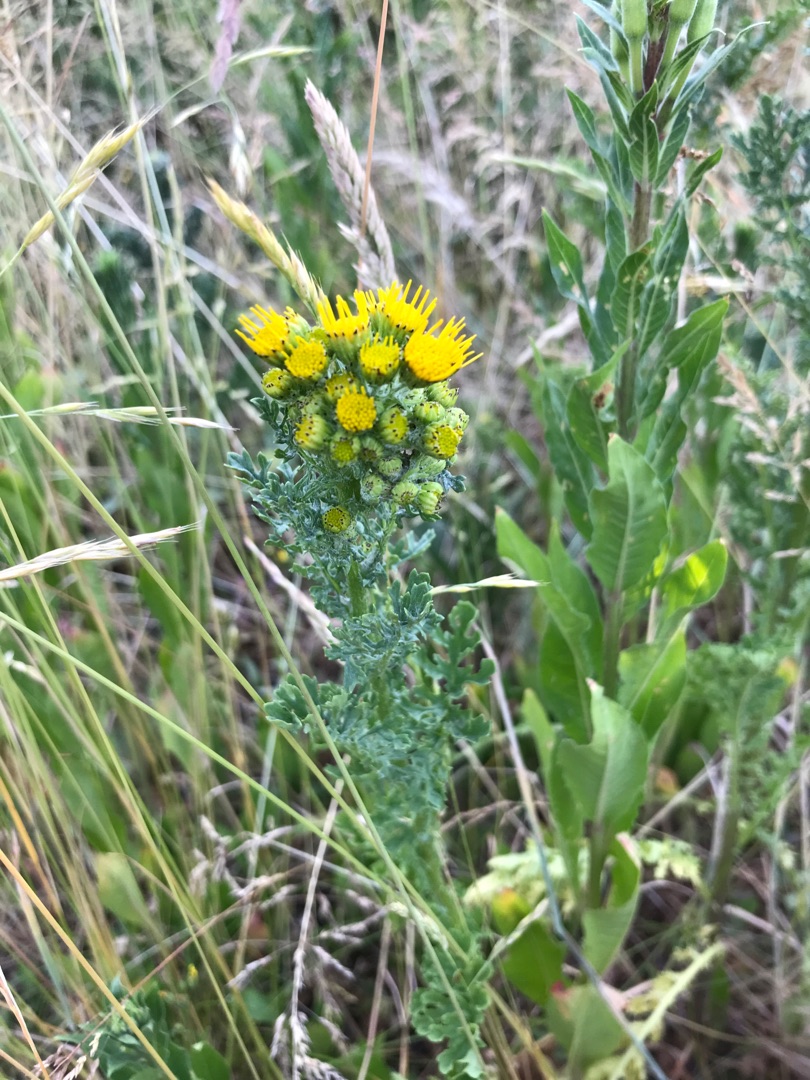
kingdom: Plantae
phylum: Tracheophyta
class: Magnoliopsida
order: Asterales
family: Asteraceae
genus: Jacobaea
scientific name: Jacobaea vulgaris
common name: Eng-brandbæger
